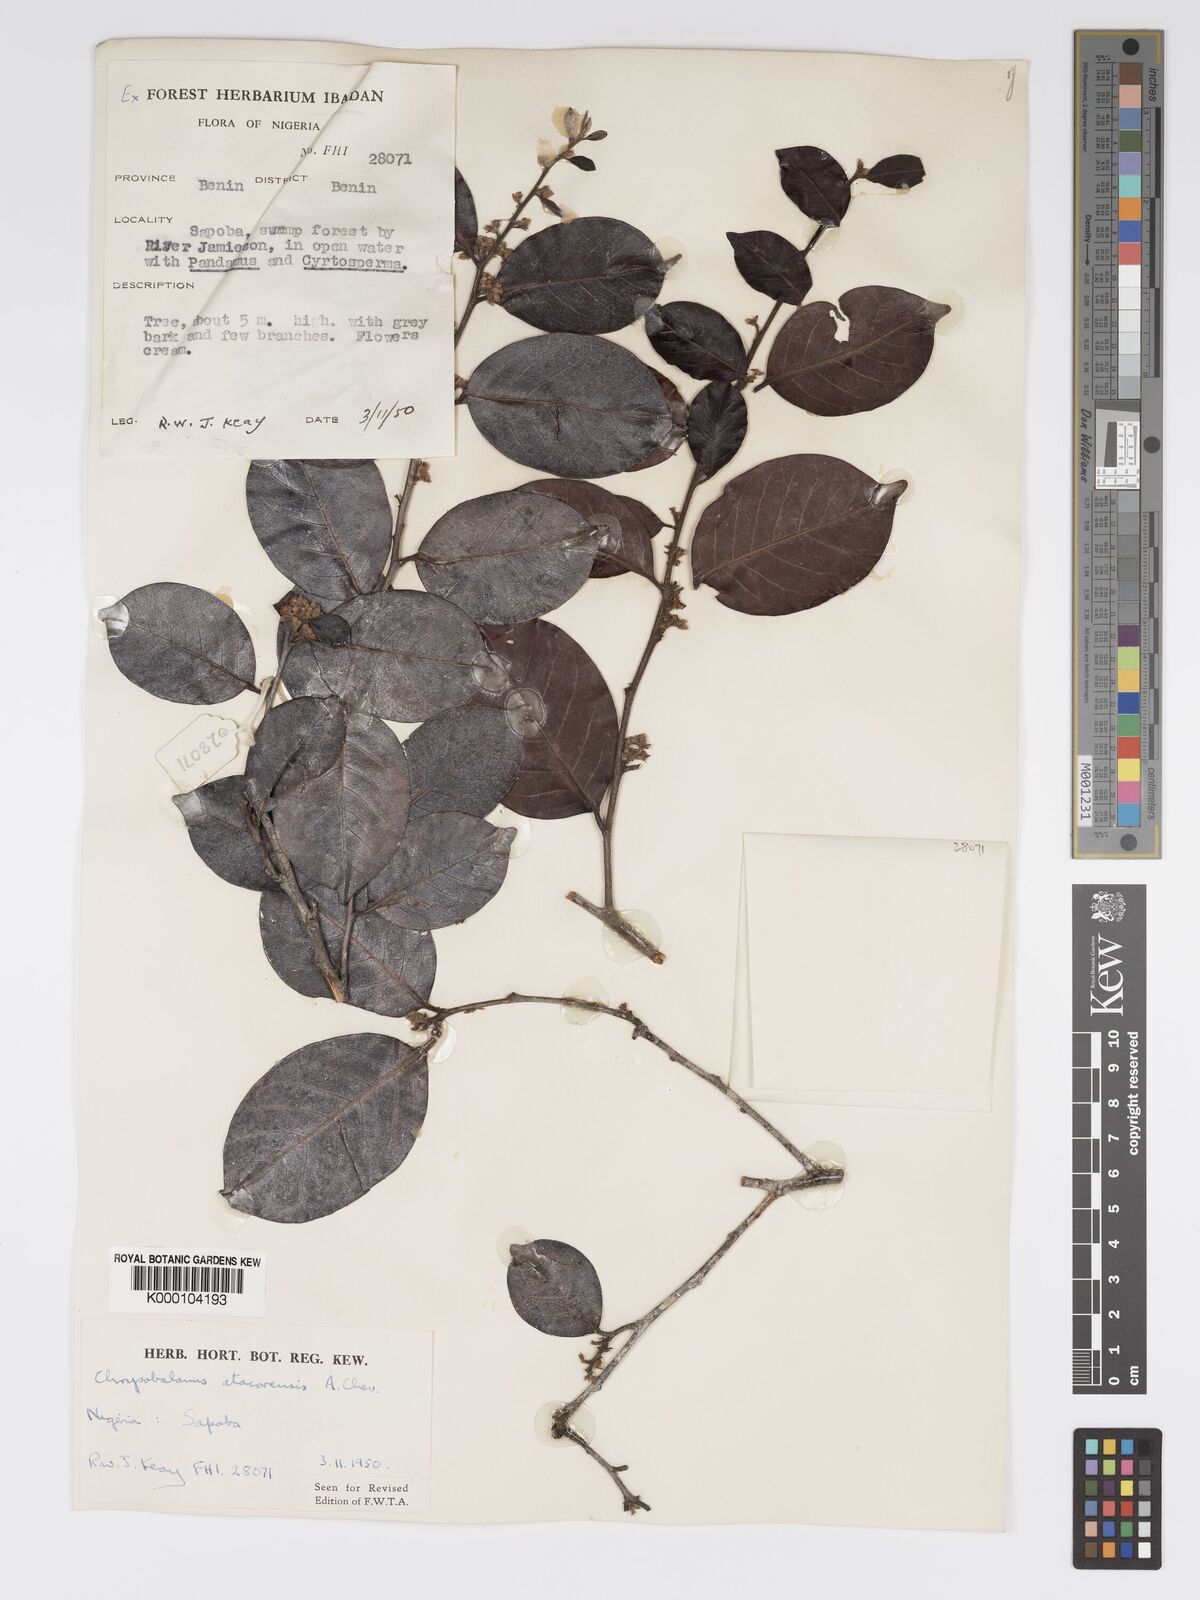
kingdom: Plantae
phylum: Tracheophyta
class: Magnoliopsida
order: Malpighiales
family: Chrysobalanaceae
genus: Chrysobalanus
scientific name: Chrysobalanus icaco
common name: Coco plum
